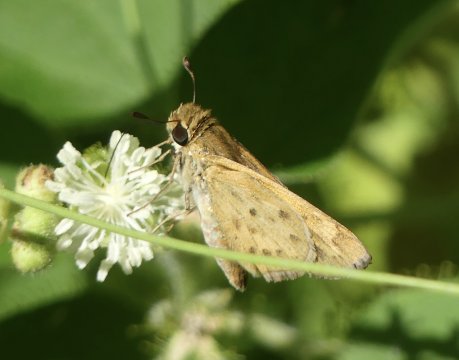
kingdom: Animalia
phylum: Arthropoda
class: Insecta
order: Lepidoptera
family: Hesperiidae
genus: Hylephila
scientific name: Hylephila phyleus
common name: Fiery Skipper
